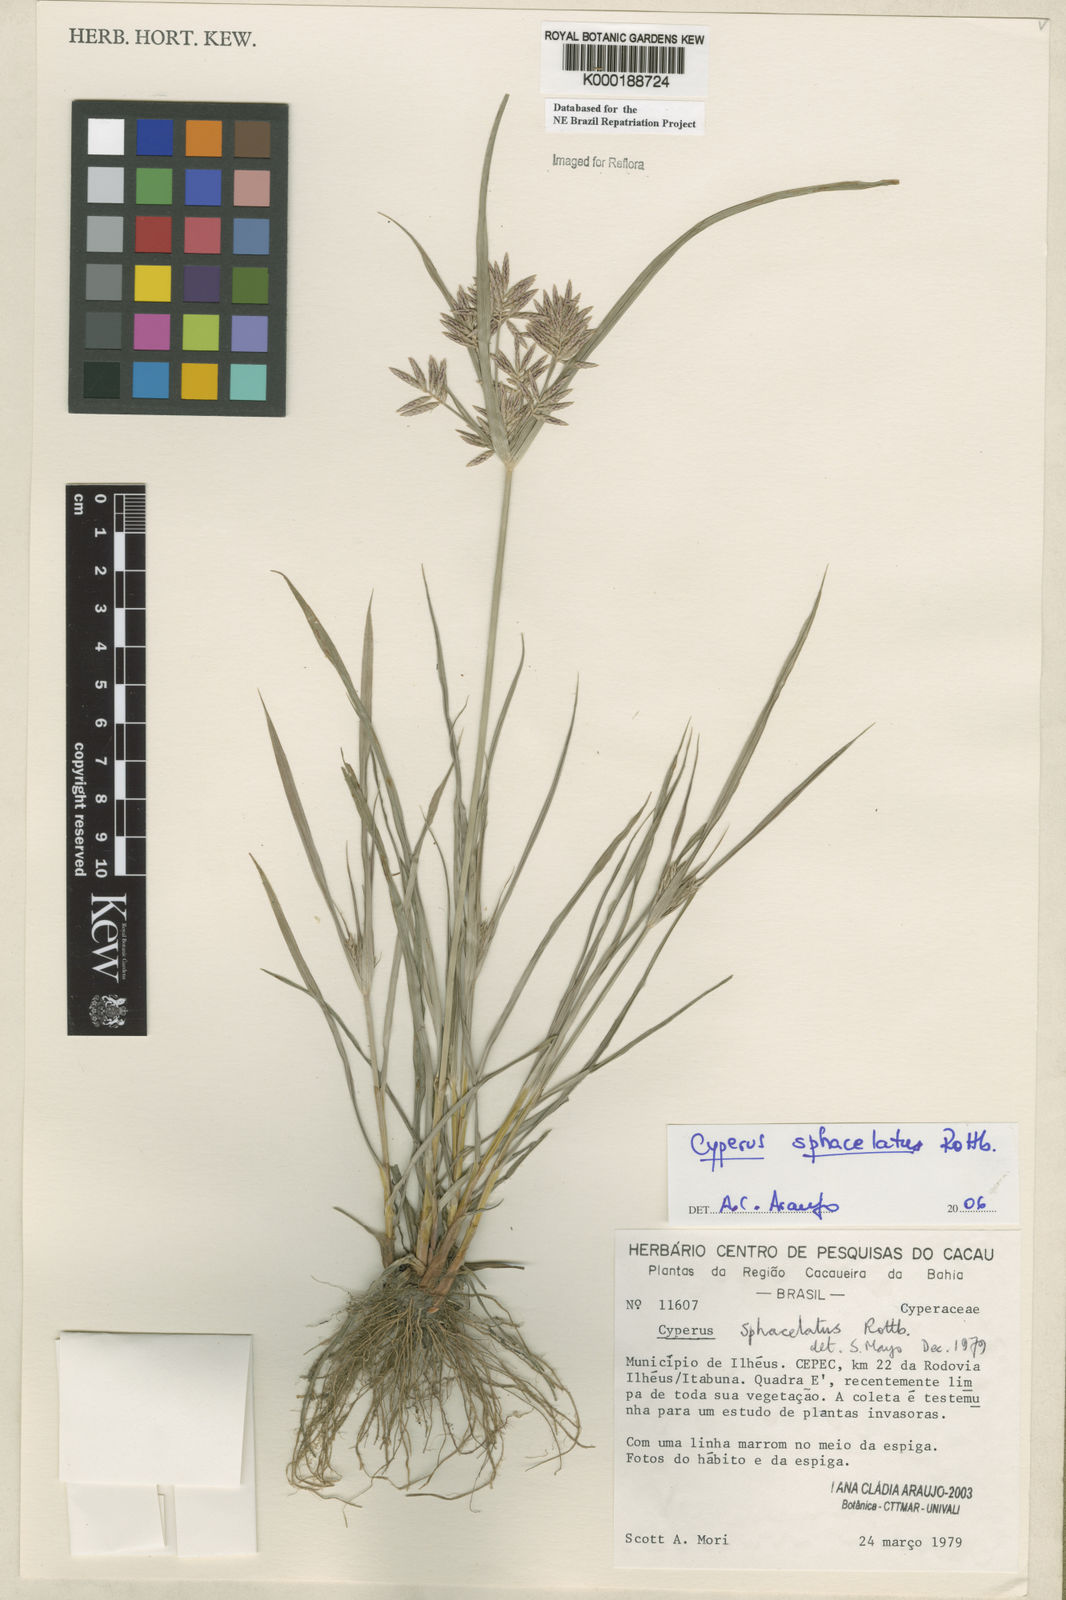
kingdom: Plantae
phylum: Tracheophyta
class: Liliopsida
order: Poales
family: Cyperaceae
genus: Cyperus
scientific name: Cyperus sphacelatus
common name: Roadside flatsedge
